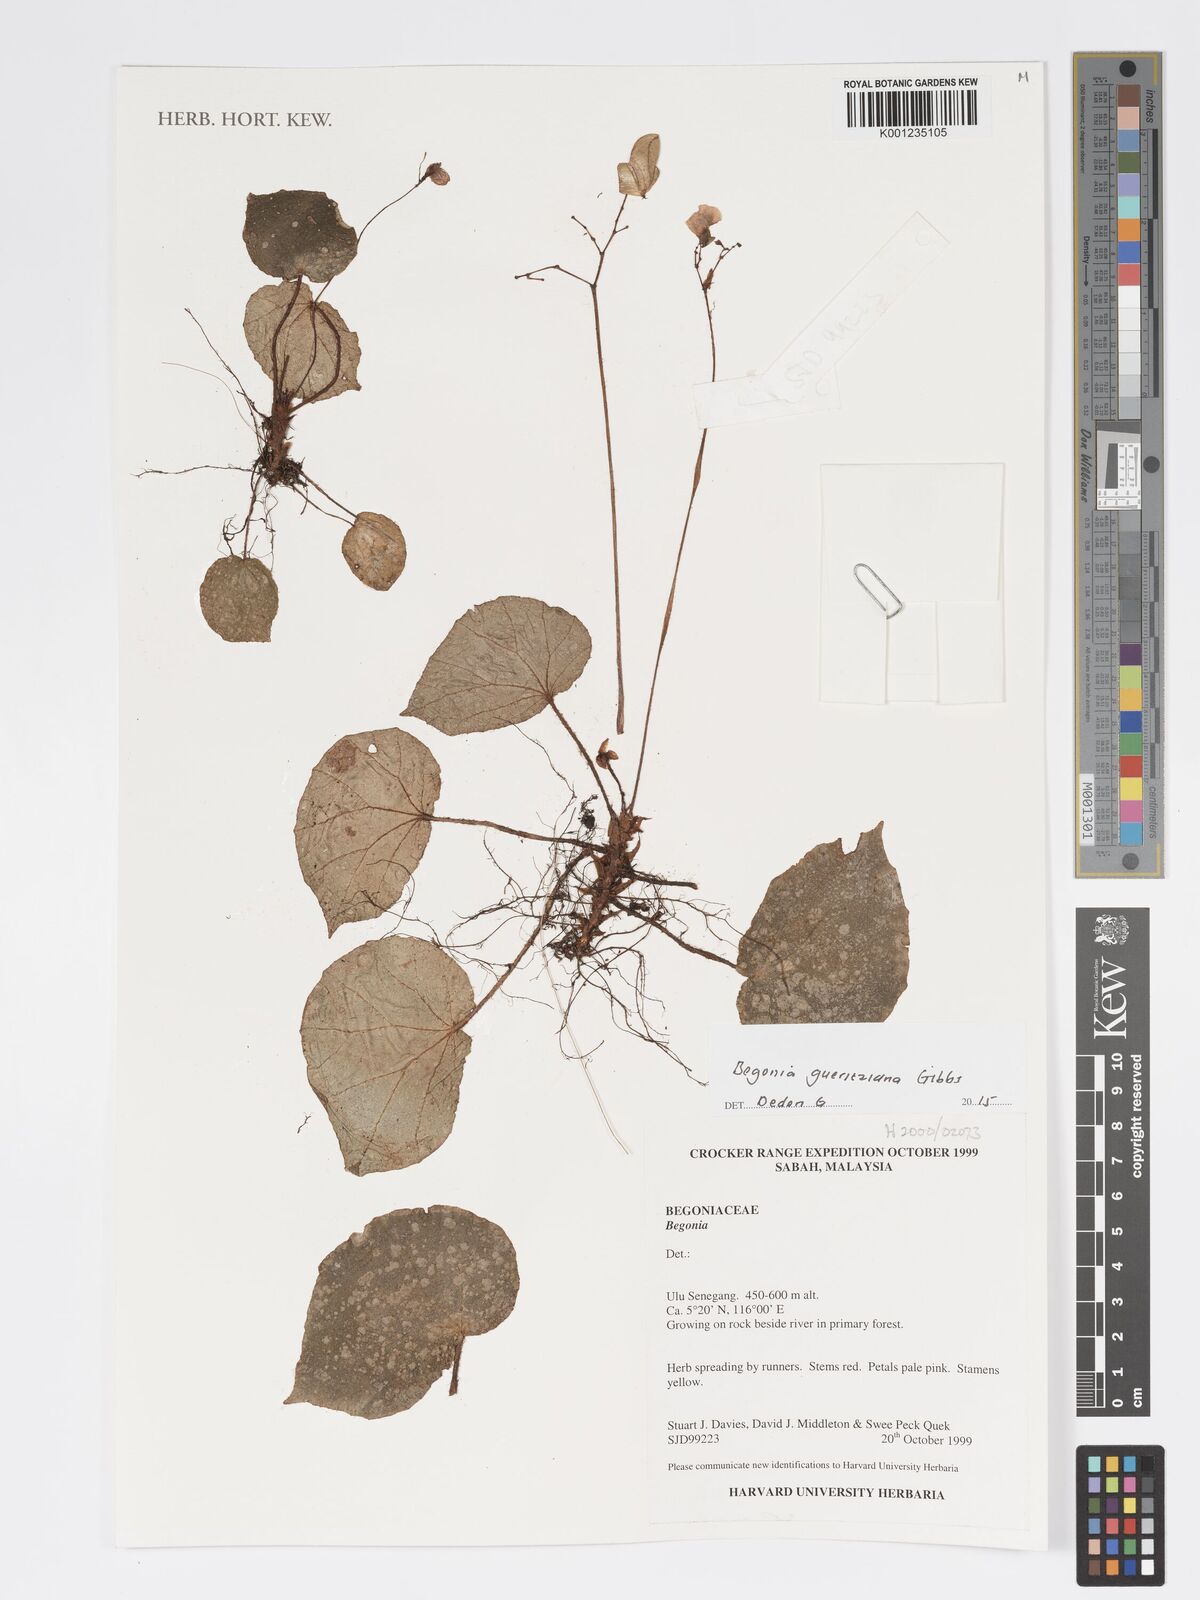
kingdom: Plantae
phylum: Tracheophyta
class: Magnoliopsida
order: Cucurbitales
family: Begoniaceae
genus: Begonia
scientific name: Begonia gueritziana
